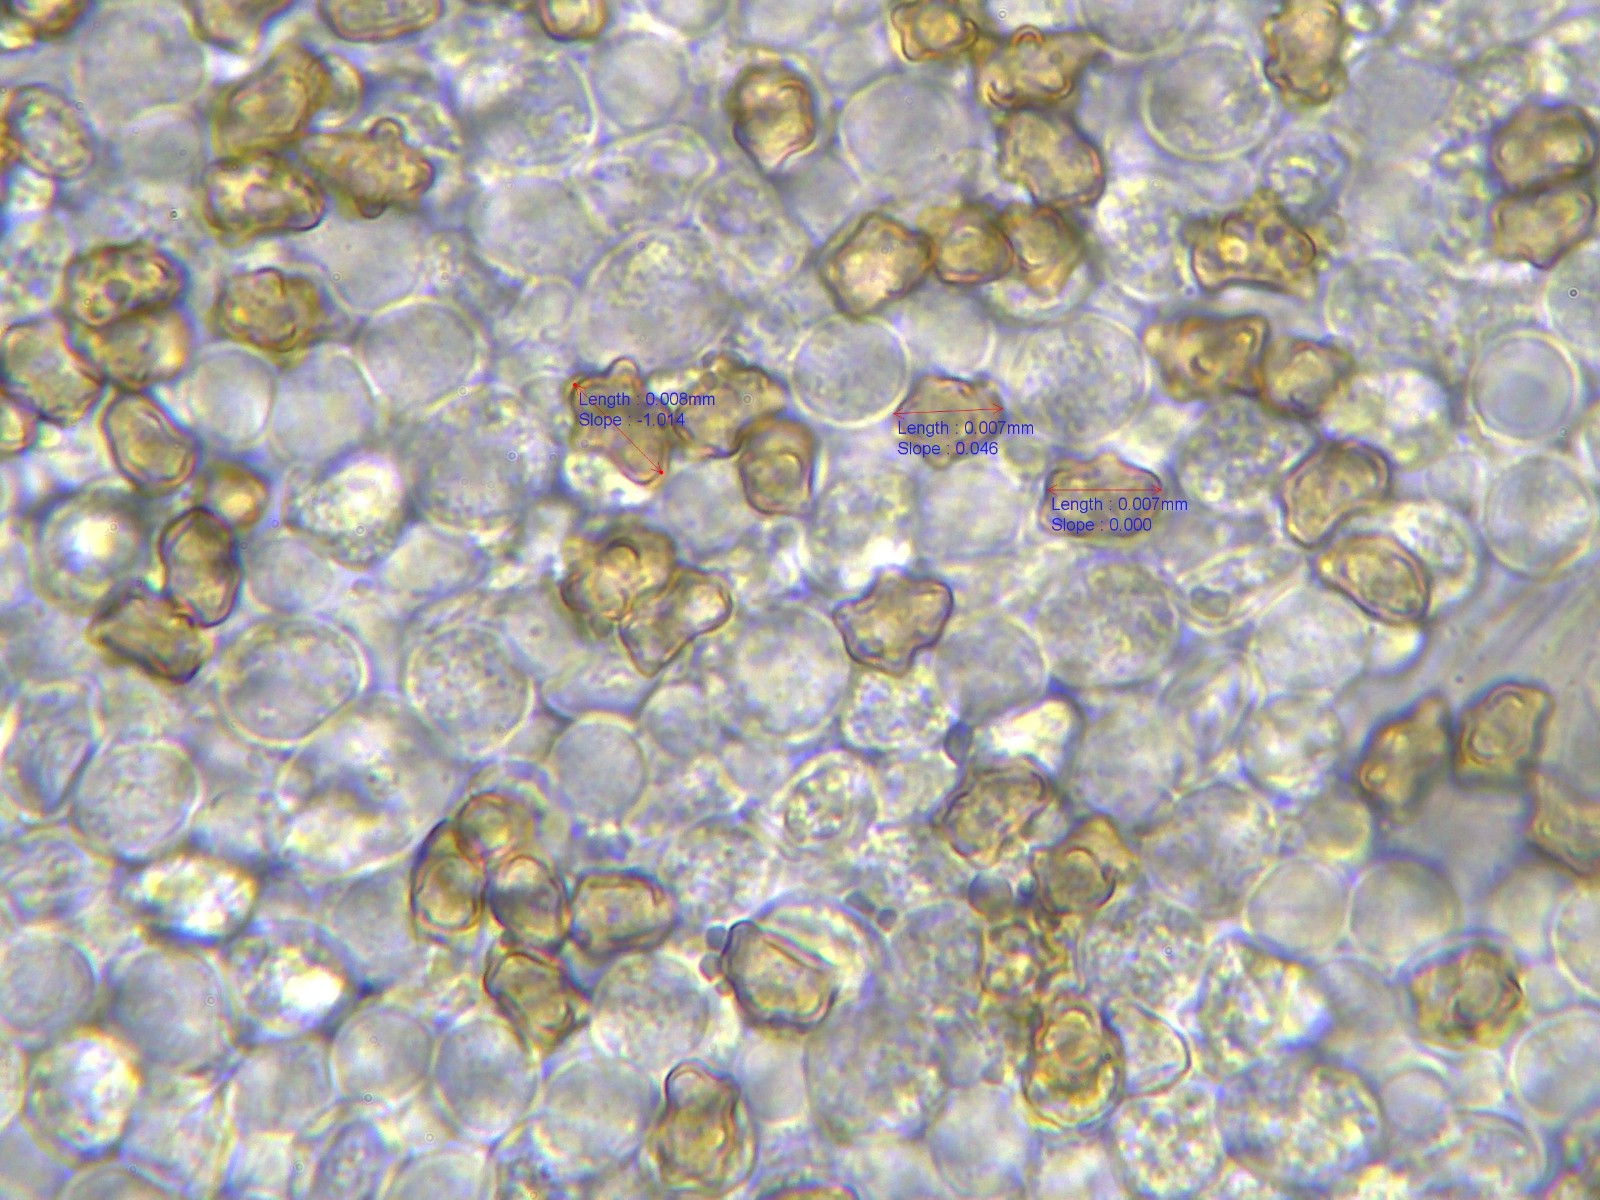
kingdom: Fungi
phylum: Basidiomycota
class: Agaricomycetes
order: Agaricales
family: Inocybaceae
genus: Inocybe
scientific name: Inocybe mixtilis
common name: randknoldet trævlhat
